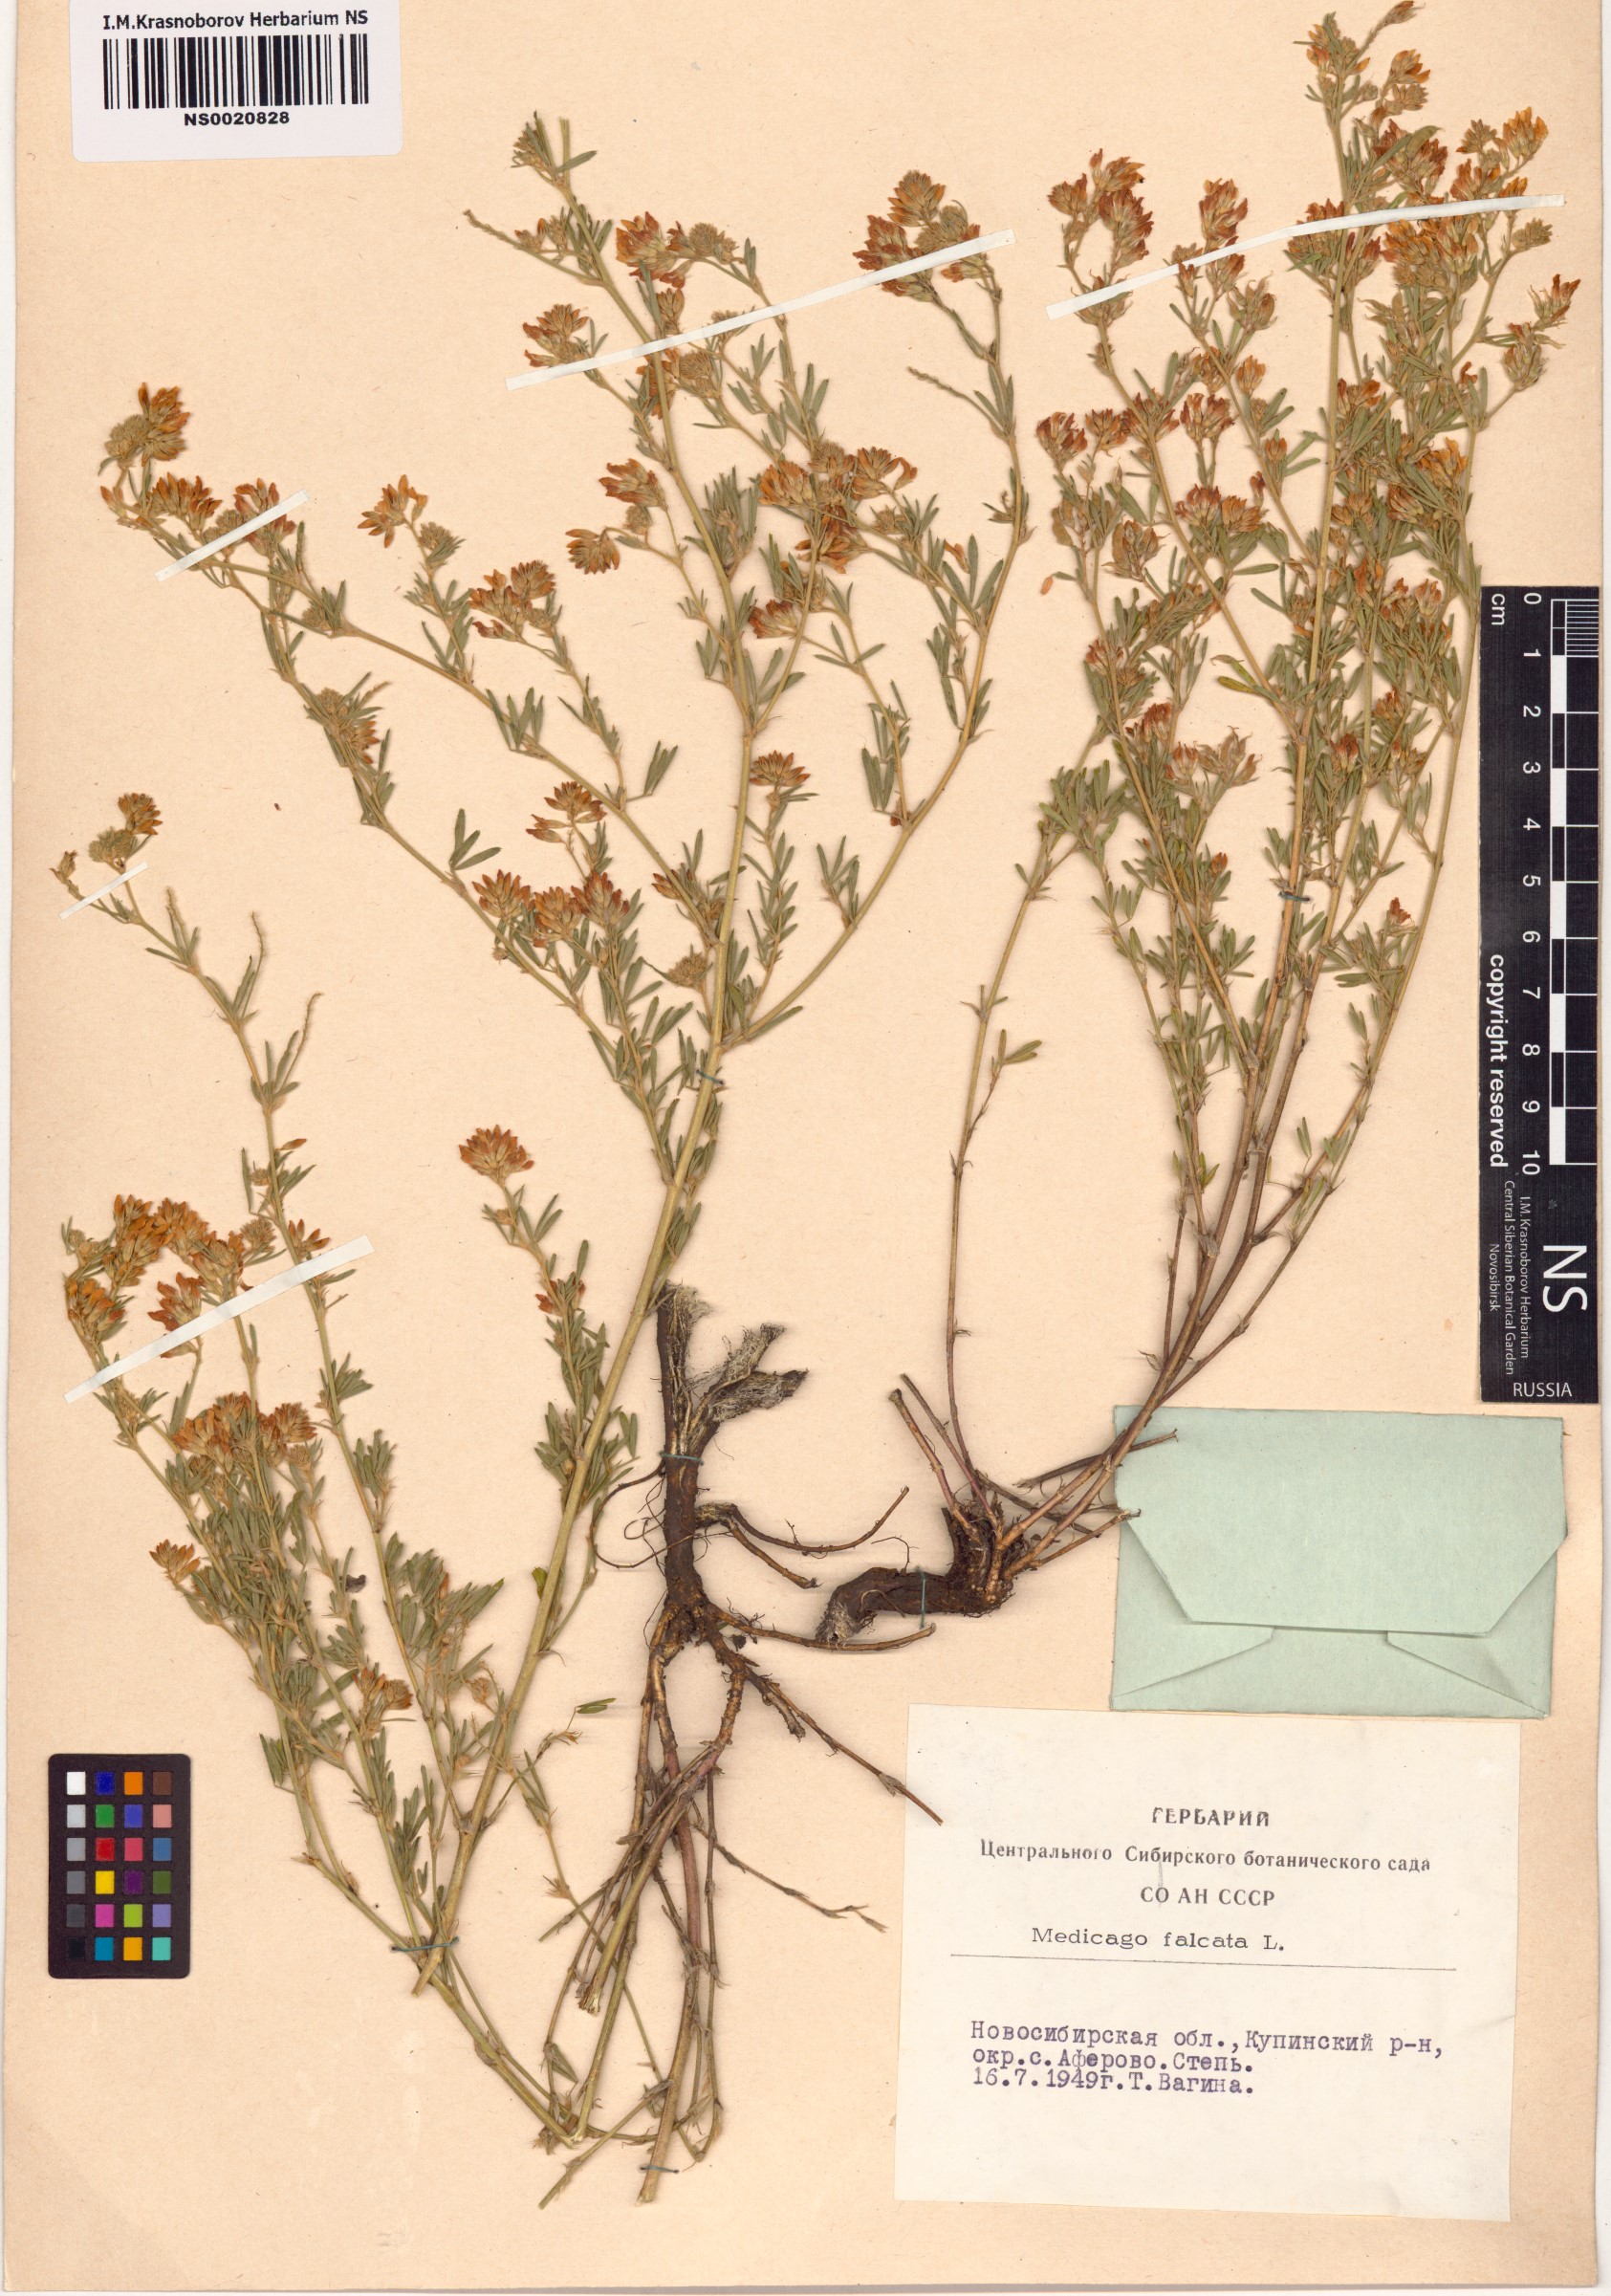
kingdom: Plantae
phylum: Tracheophyta
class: Magnoliopsida
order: Fabales
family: Fabaceae
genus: Medicago
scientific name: Medicago falcata
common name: Sickle medick
